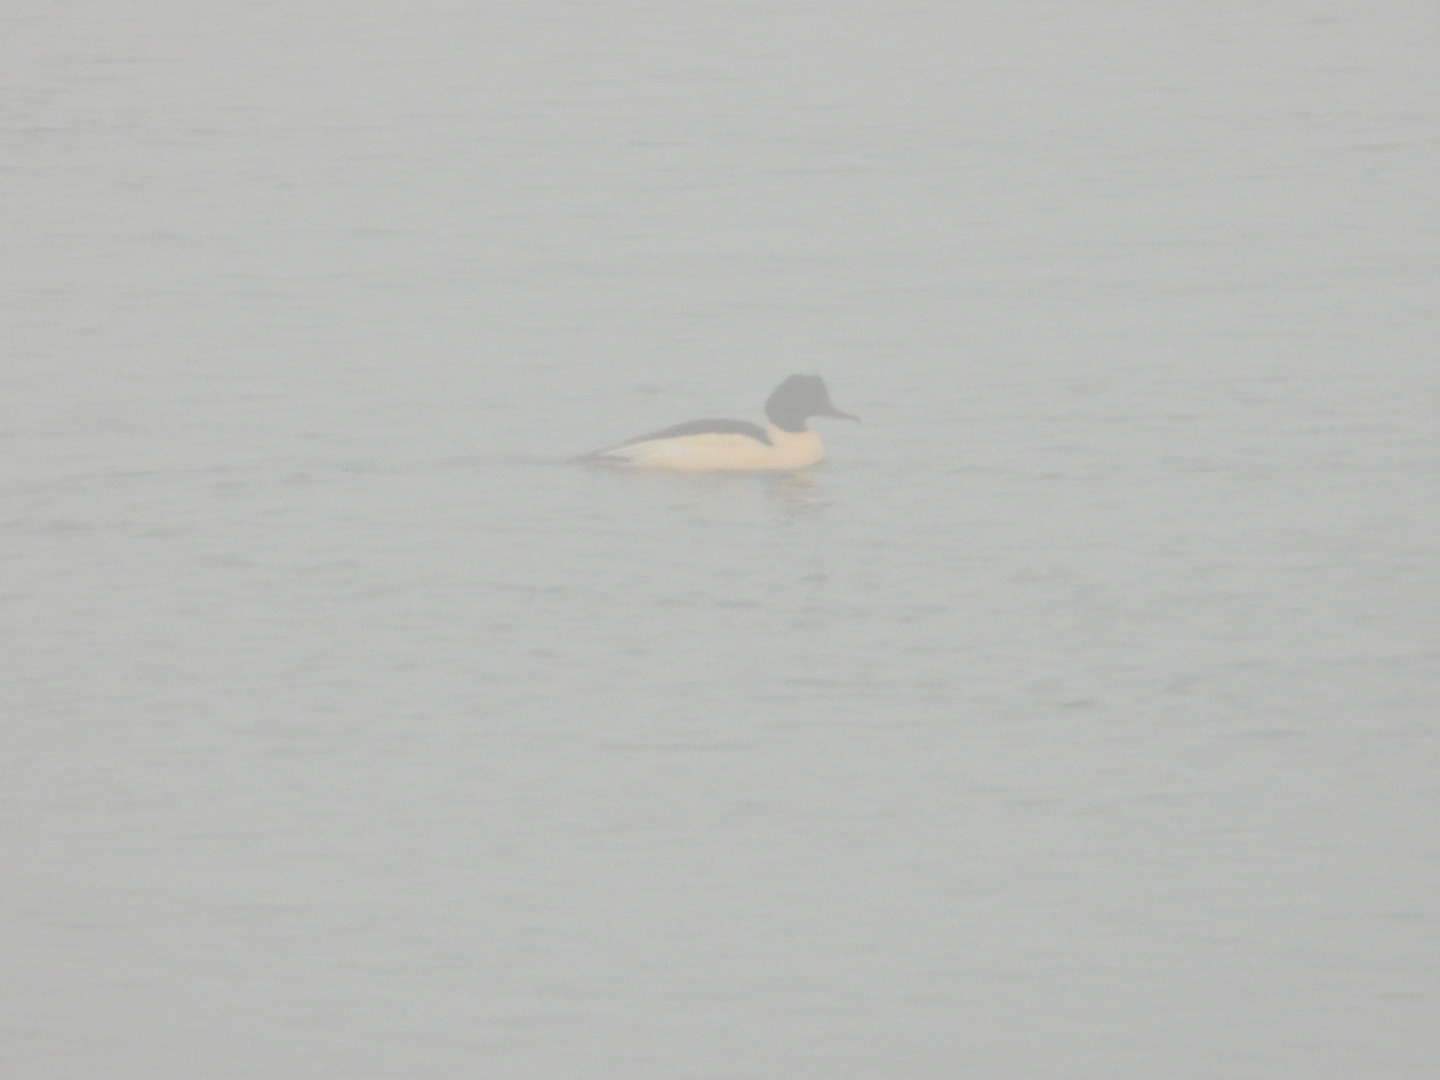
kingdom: Animalia
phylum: Chordata
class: Aves
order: Anseriformes
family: Anatidae
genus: Mergus
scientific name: Mergus merganser
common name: Stor skallesluger
